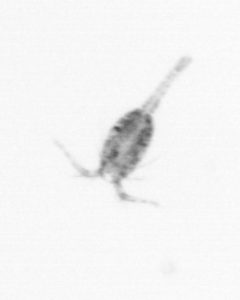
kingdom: Animalia
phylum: Arthropoda
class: Copepoda
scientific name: Copepoda
